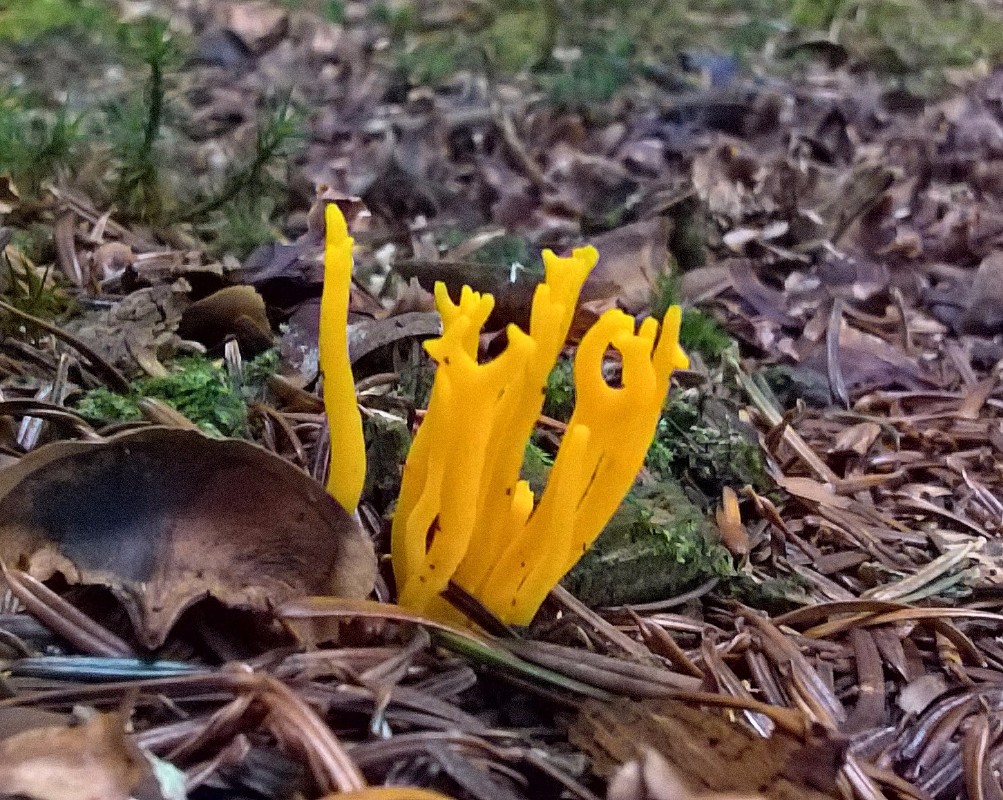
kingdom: Fungi
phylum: Basidiomycota
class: Dacrymycetes
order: Dacrymycetales
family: Dacrymycetaceae
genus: Calocera
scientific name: Calocera viscosa
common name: almindelig guldgaffel
